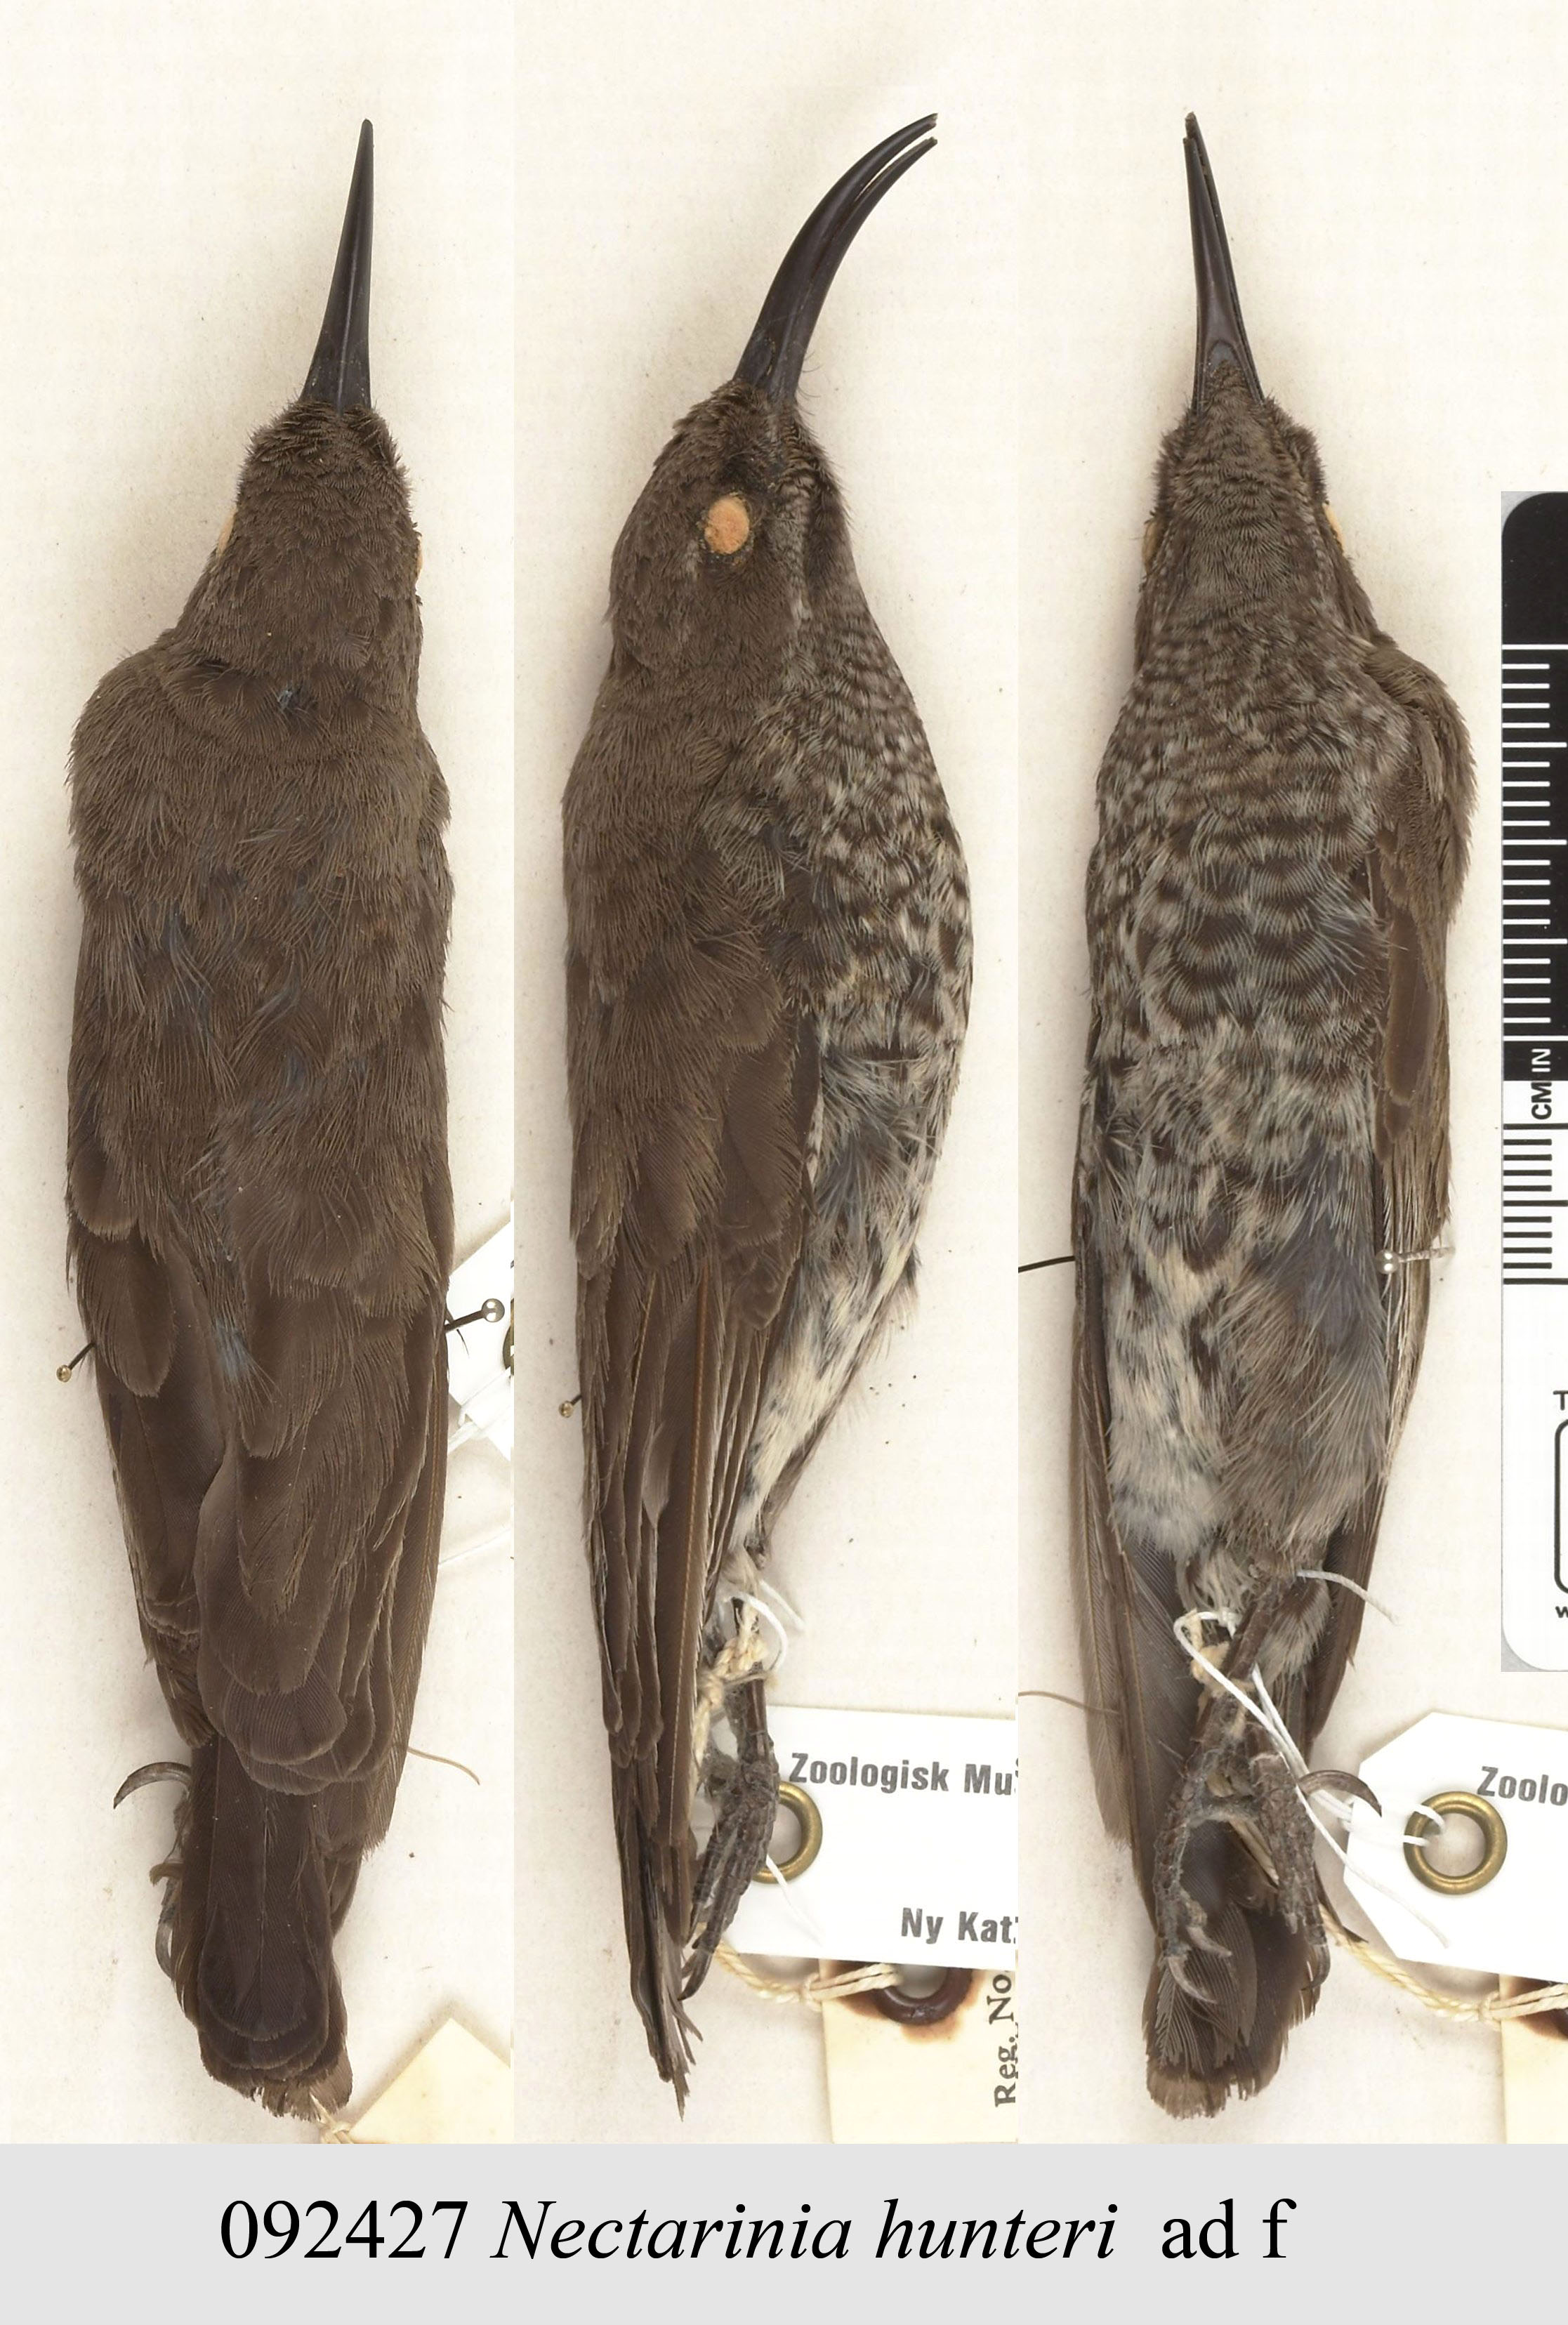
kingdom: Animalia
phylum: Chordata
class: Aves
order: Passeriformes
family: Nectariniidae
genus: Chalcomitra
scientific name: Chalcomitra hunteri
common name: Hunter's sunbird
